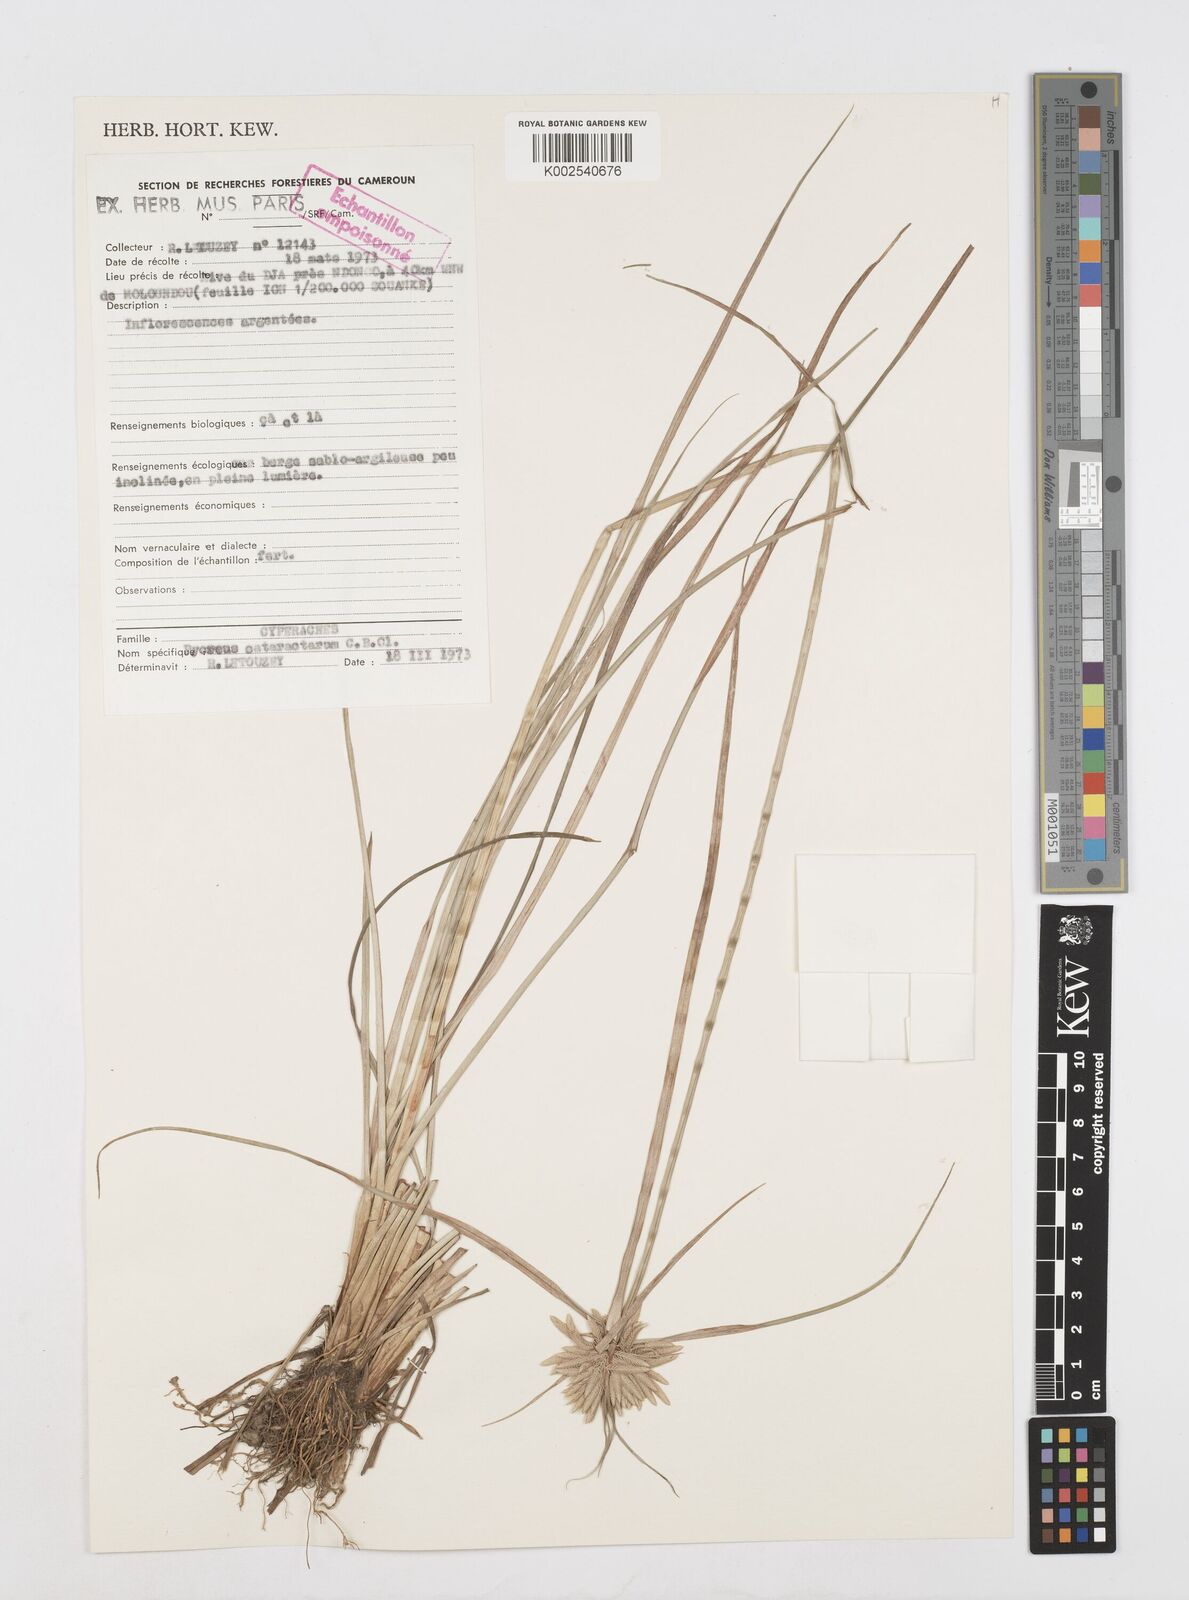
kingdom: Plantae
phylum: Tracheophyta
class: Liliopsida
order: Poales
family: Cyperaceae
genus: Cyperus
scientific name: Cyperus cataractarum
